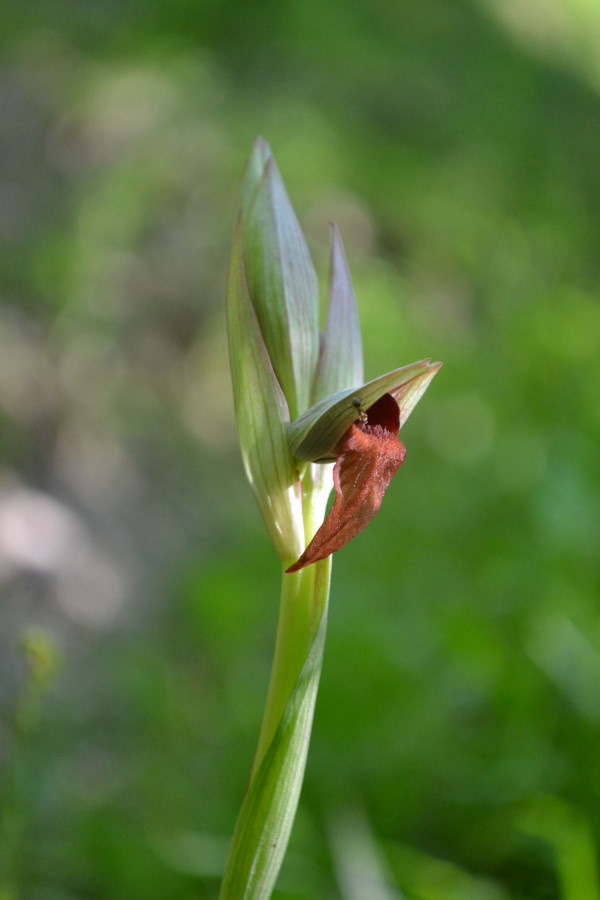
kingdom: Plantae
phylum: Tracheophyta
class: Liliopsida
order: Asparagales
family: Orchidaceae
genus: Serapias
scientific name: Serapias vomeracea
